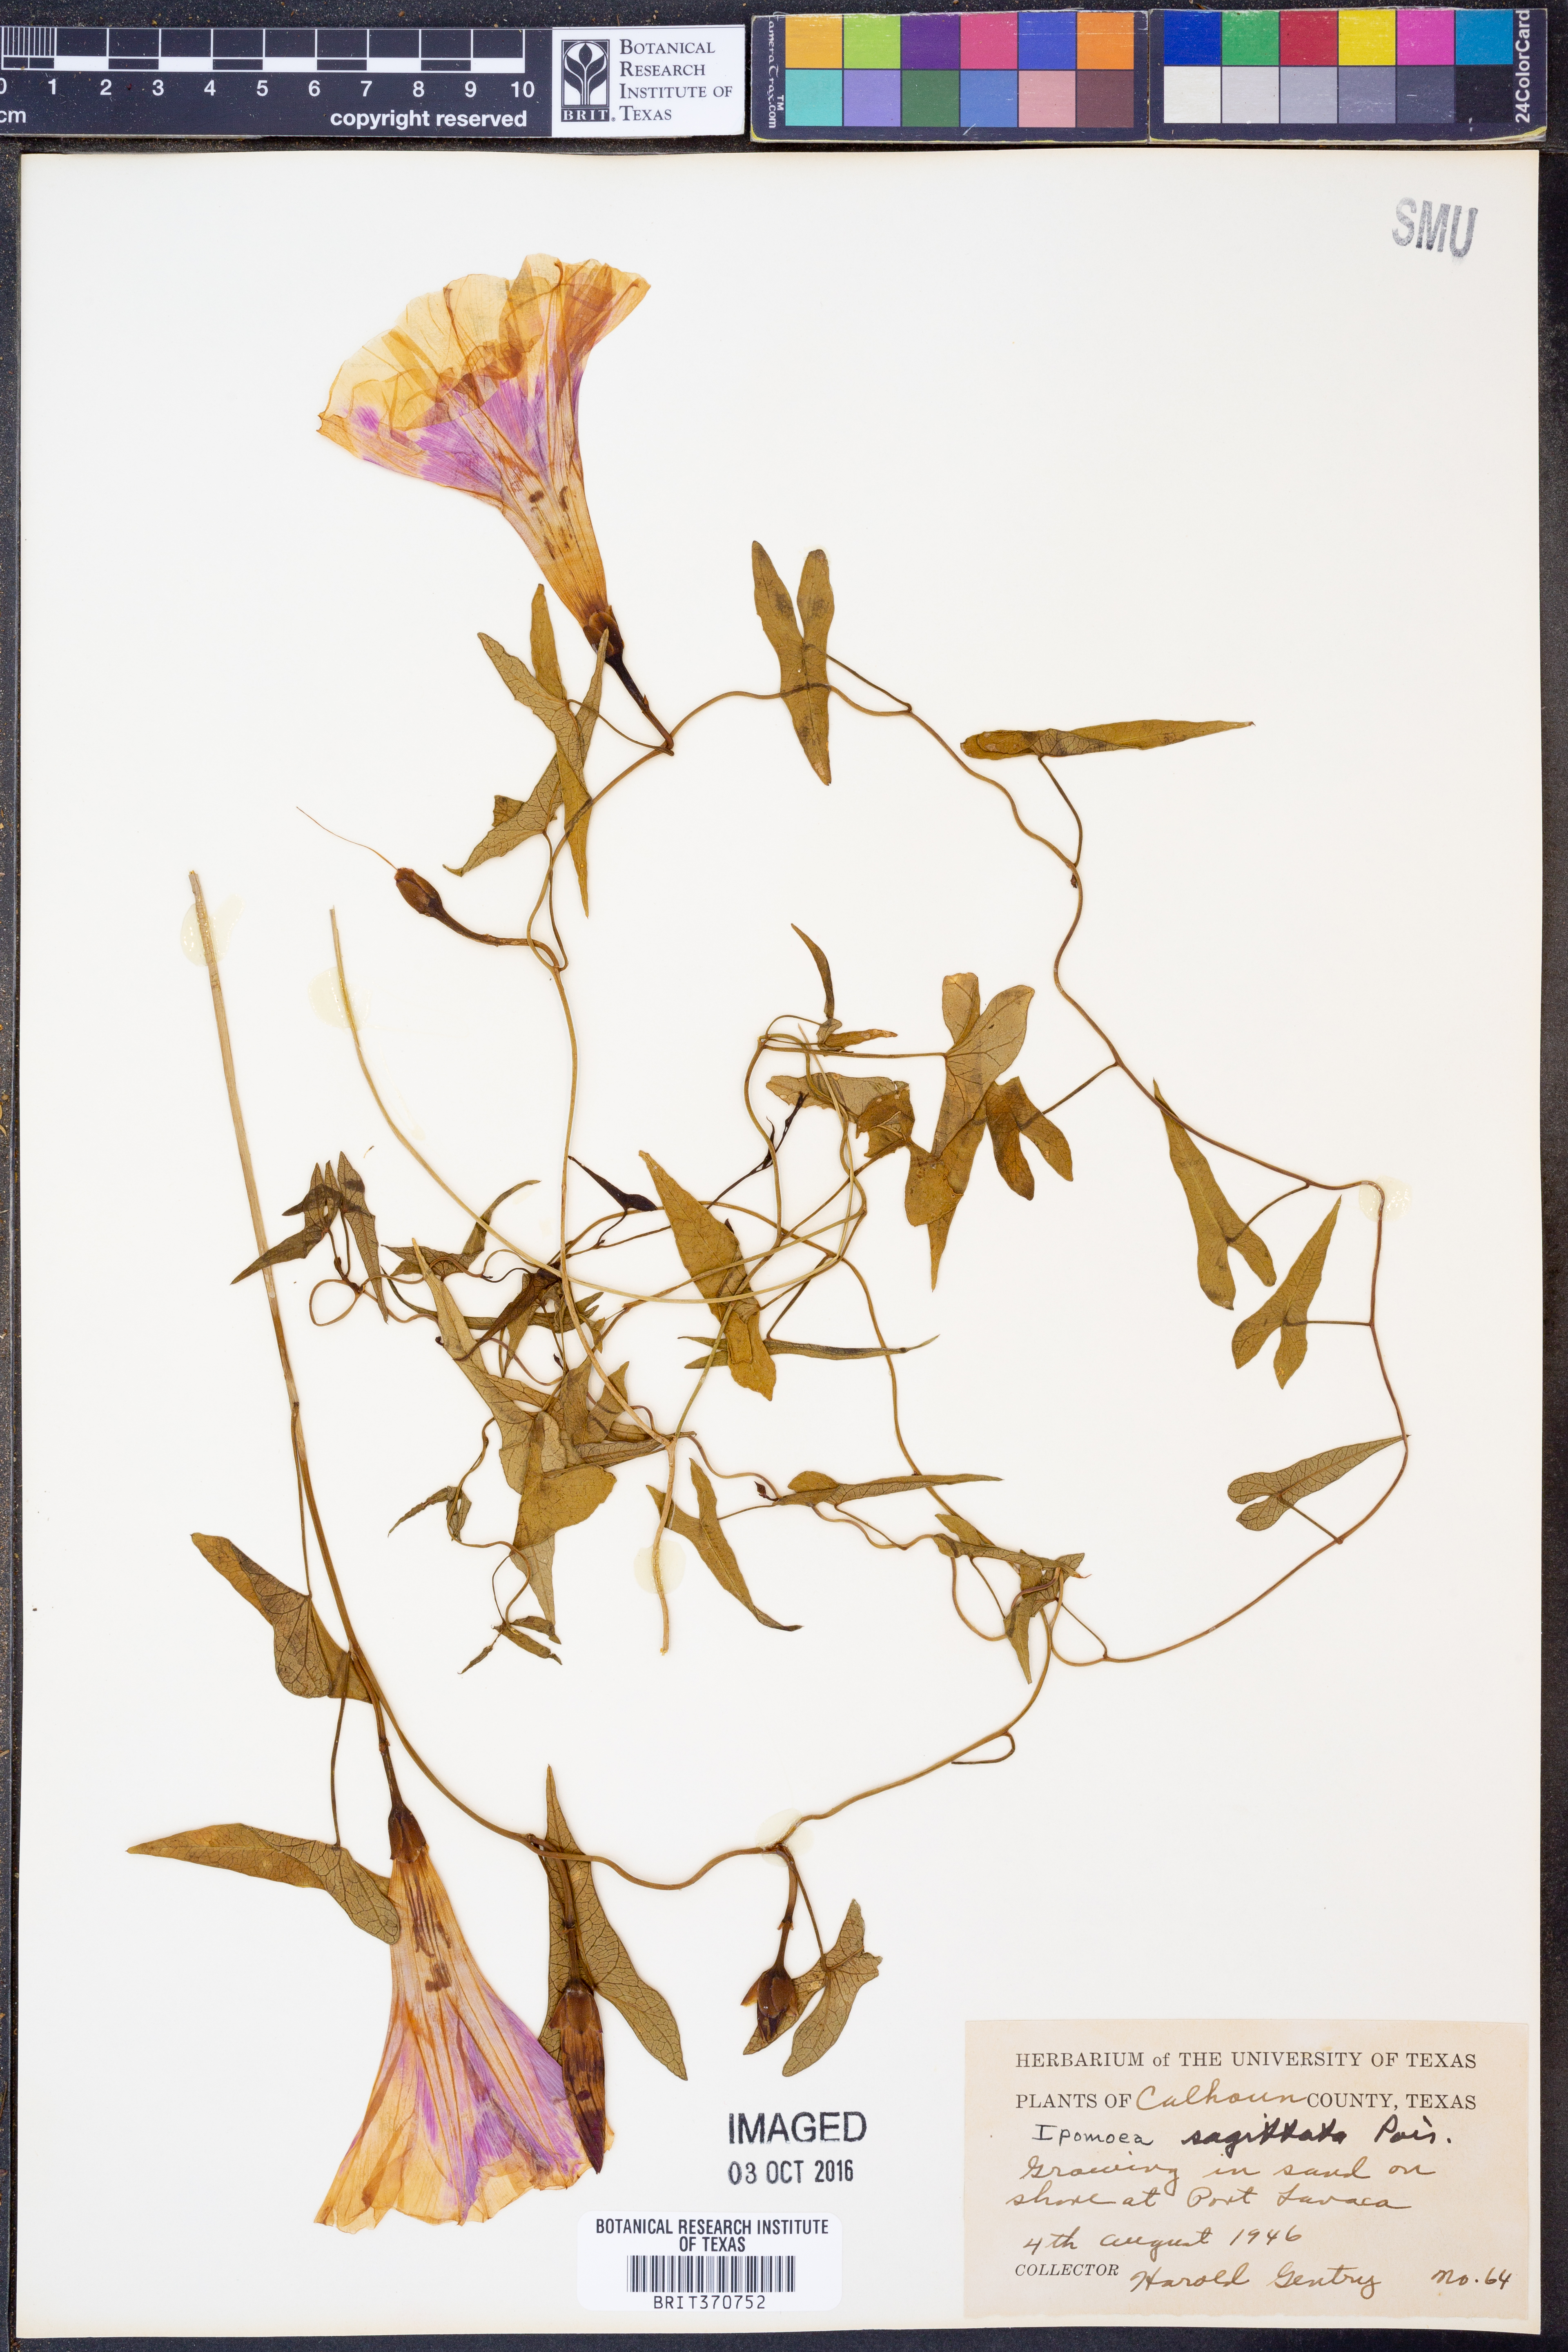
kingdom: Plantae
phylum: Tracheophyta
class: Magnoliopsida
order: Solanales
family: Convolvulaceae
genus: Ipomoea
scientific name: Ipomoea sinensis
